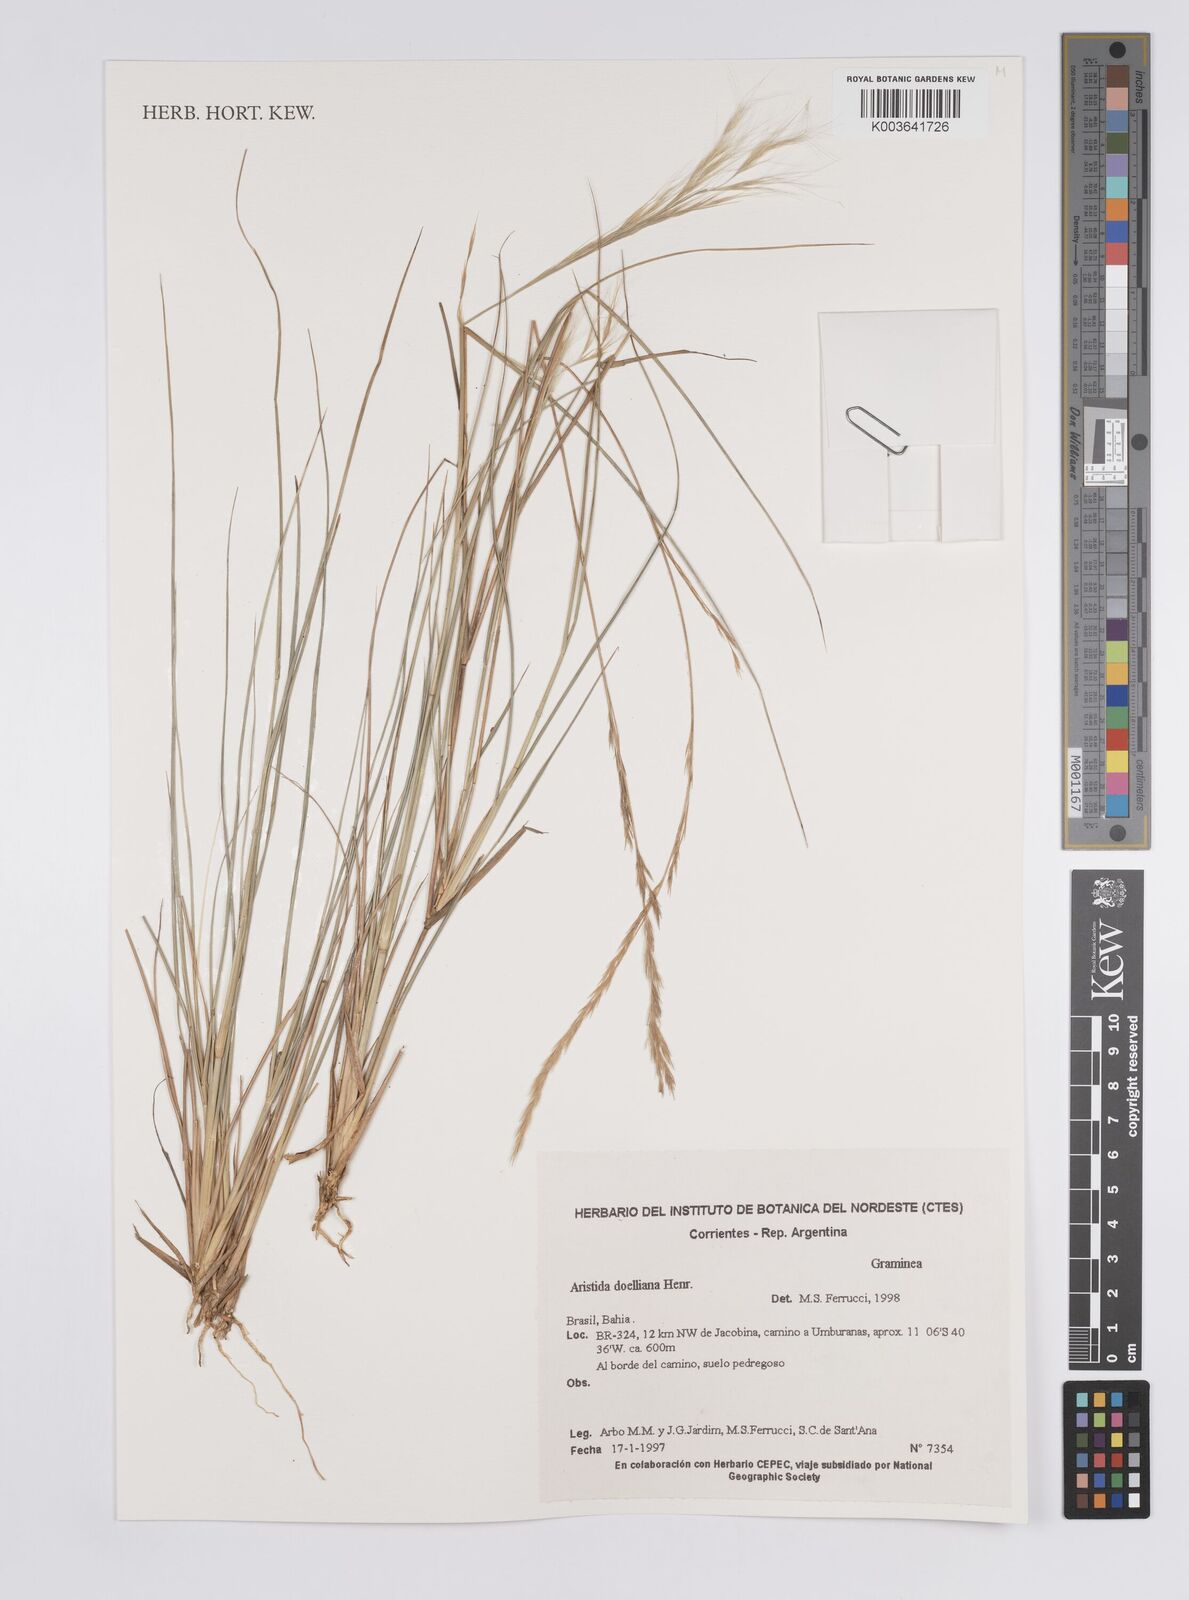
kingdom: Plantae
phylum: Tracheophyta
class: Liliopsida
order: Poales
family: Poaceae
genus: Aristida
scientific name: Aristida setifolia
